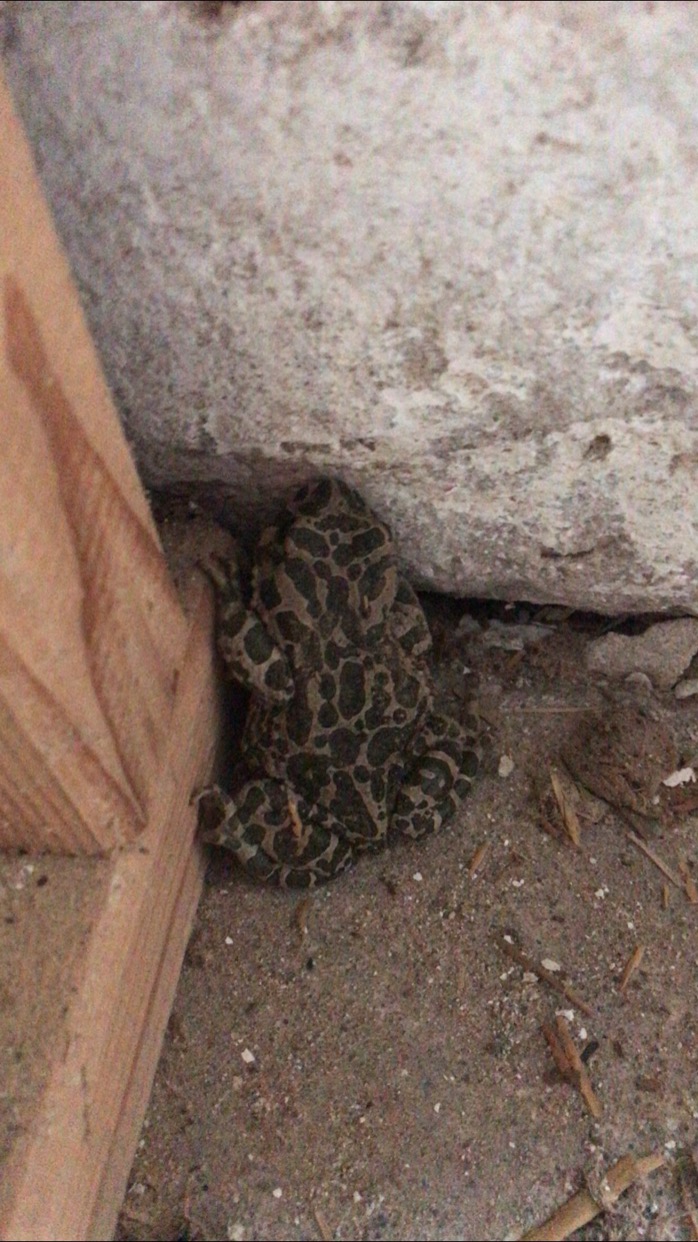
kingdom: Animalia
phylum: Chordata
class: Amphibia
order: Anura
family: Bufonidae
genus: Bufotes
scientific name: Bufotes viridis
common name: Grønbroget tudse
